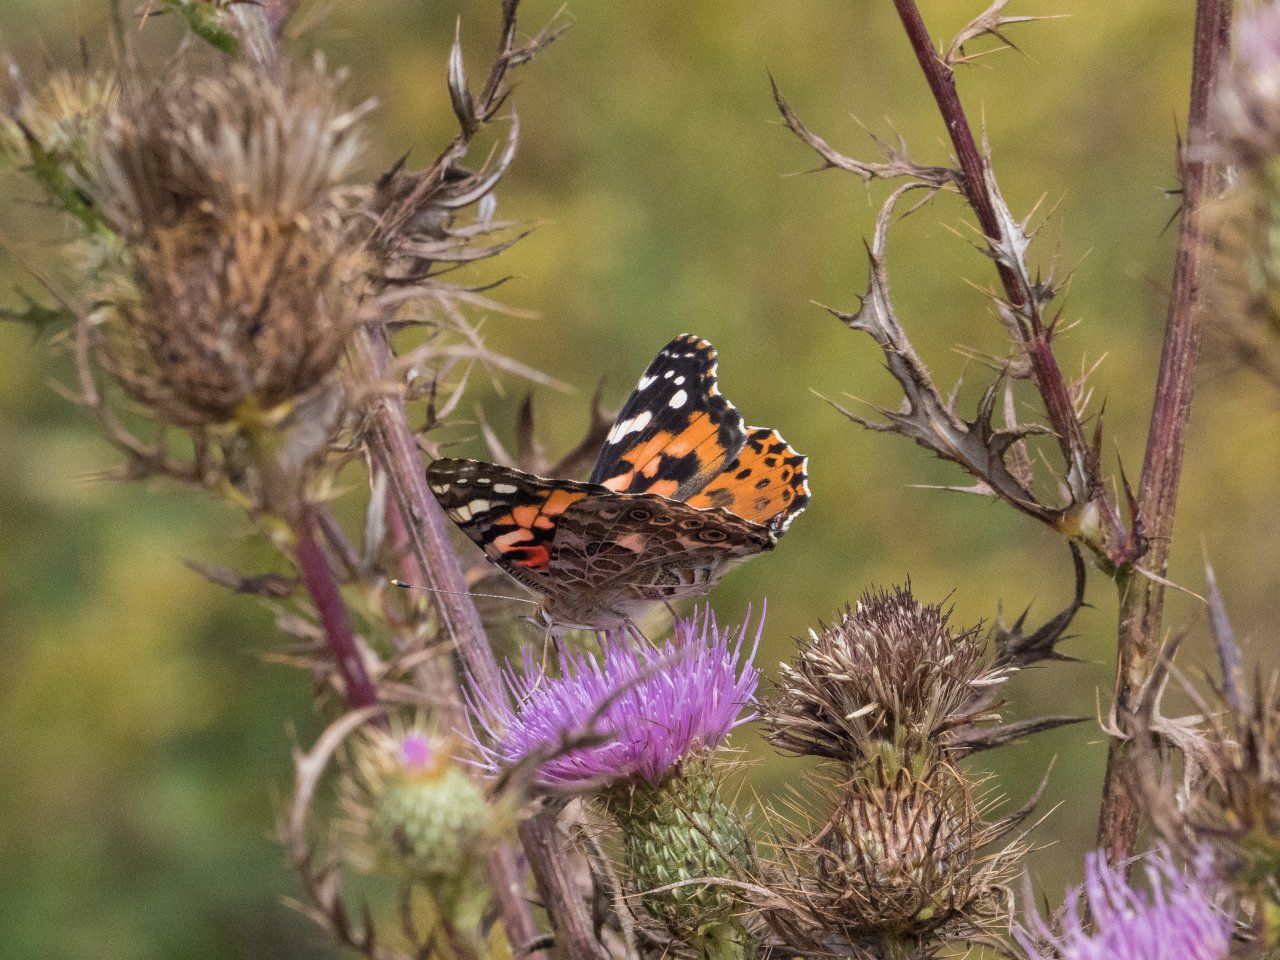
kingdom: Animalia
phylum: Arthropoda
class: Insecta
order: Lepidoptera
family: Nymphalidae
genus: Vanessa
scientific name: Vanessa cardui
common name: Painted Lady
